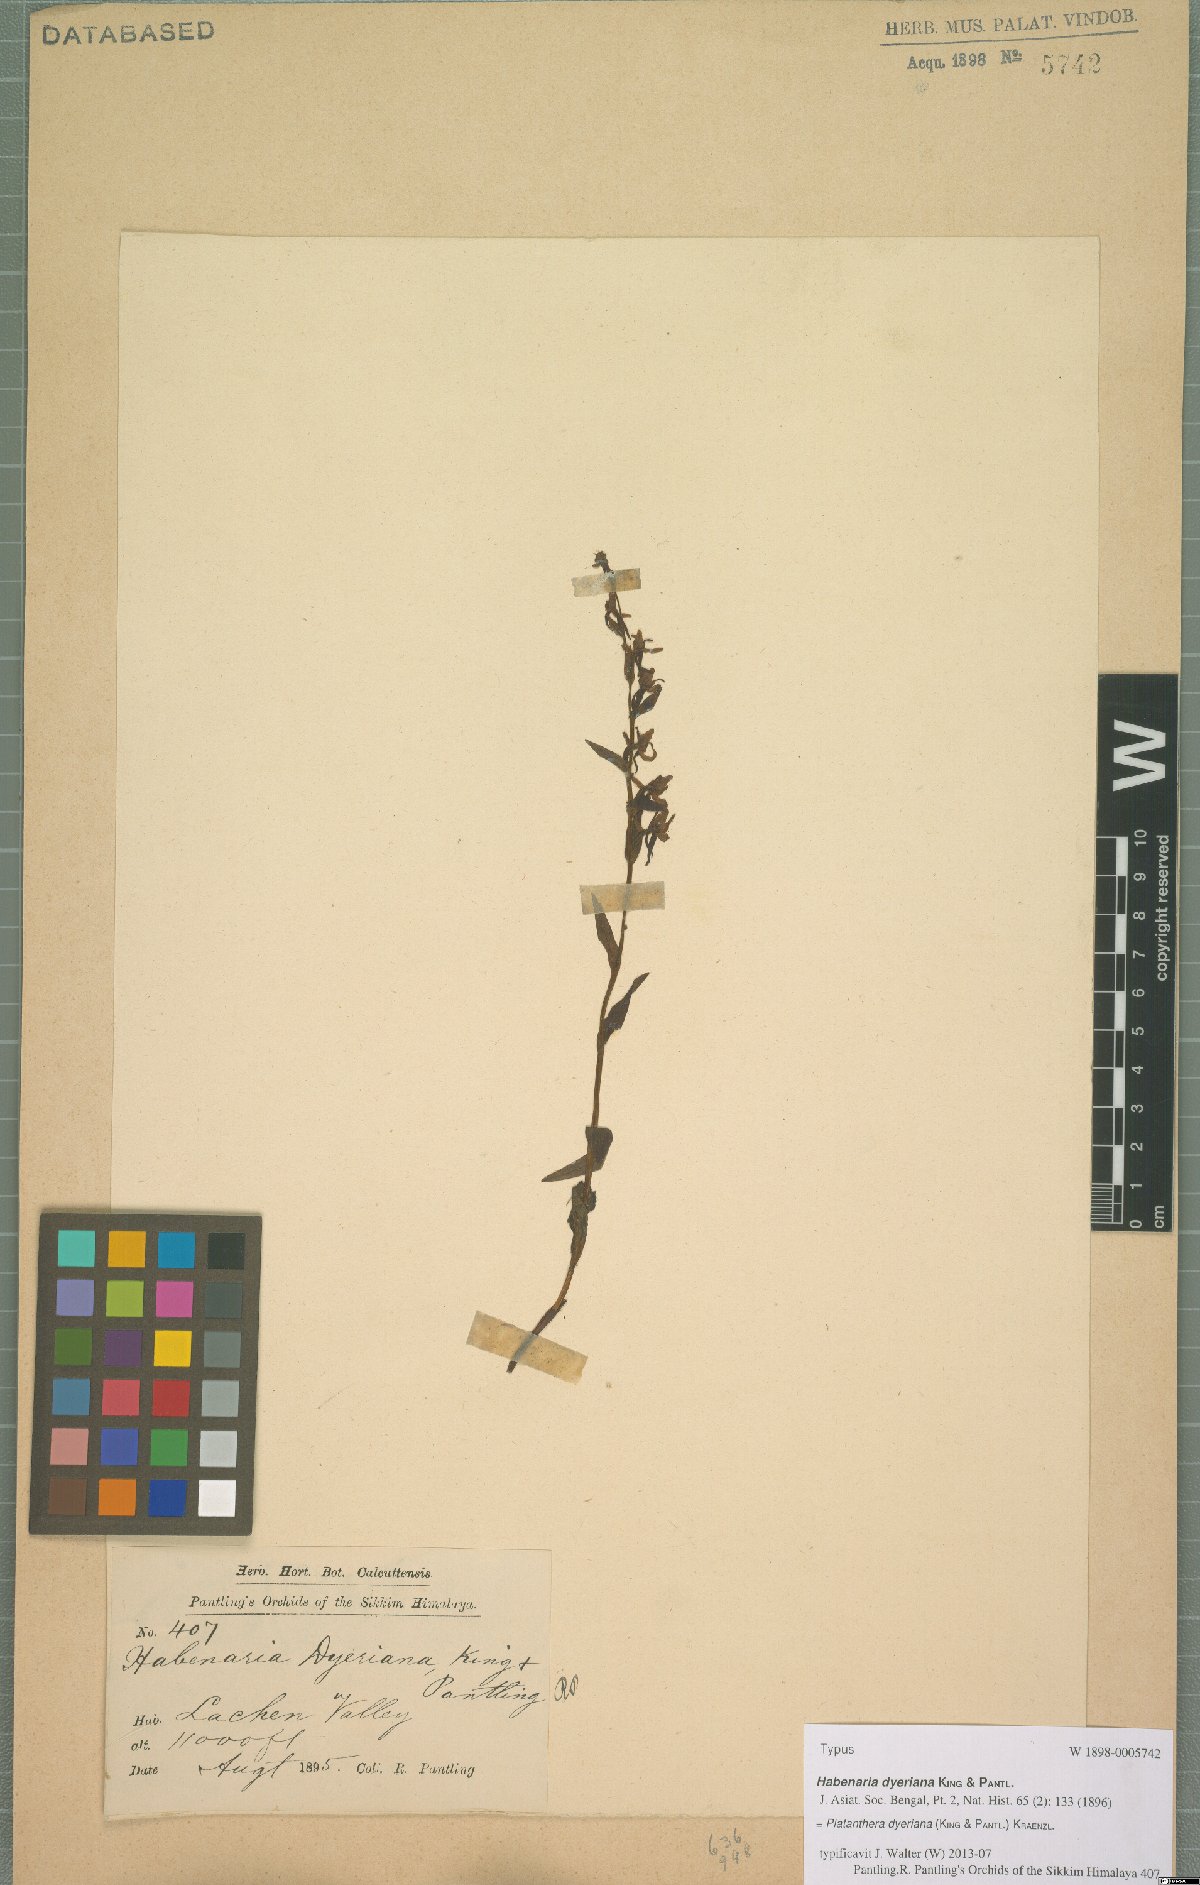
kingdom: Plantae
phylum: Tracheophyta
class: Liliopsida
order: Asparagales
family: Orchidaceae
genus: Platanthera
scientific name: Platanthera concinna
